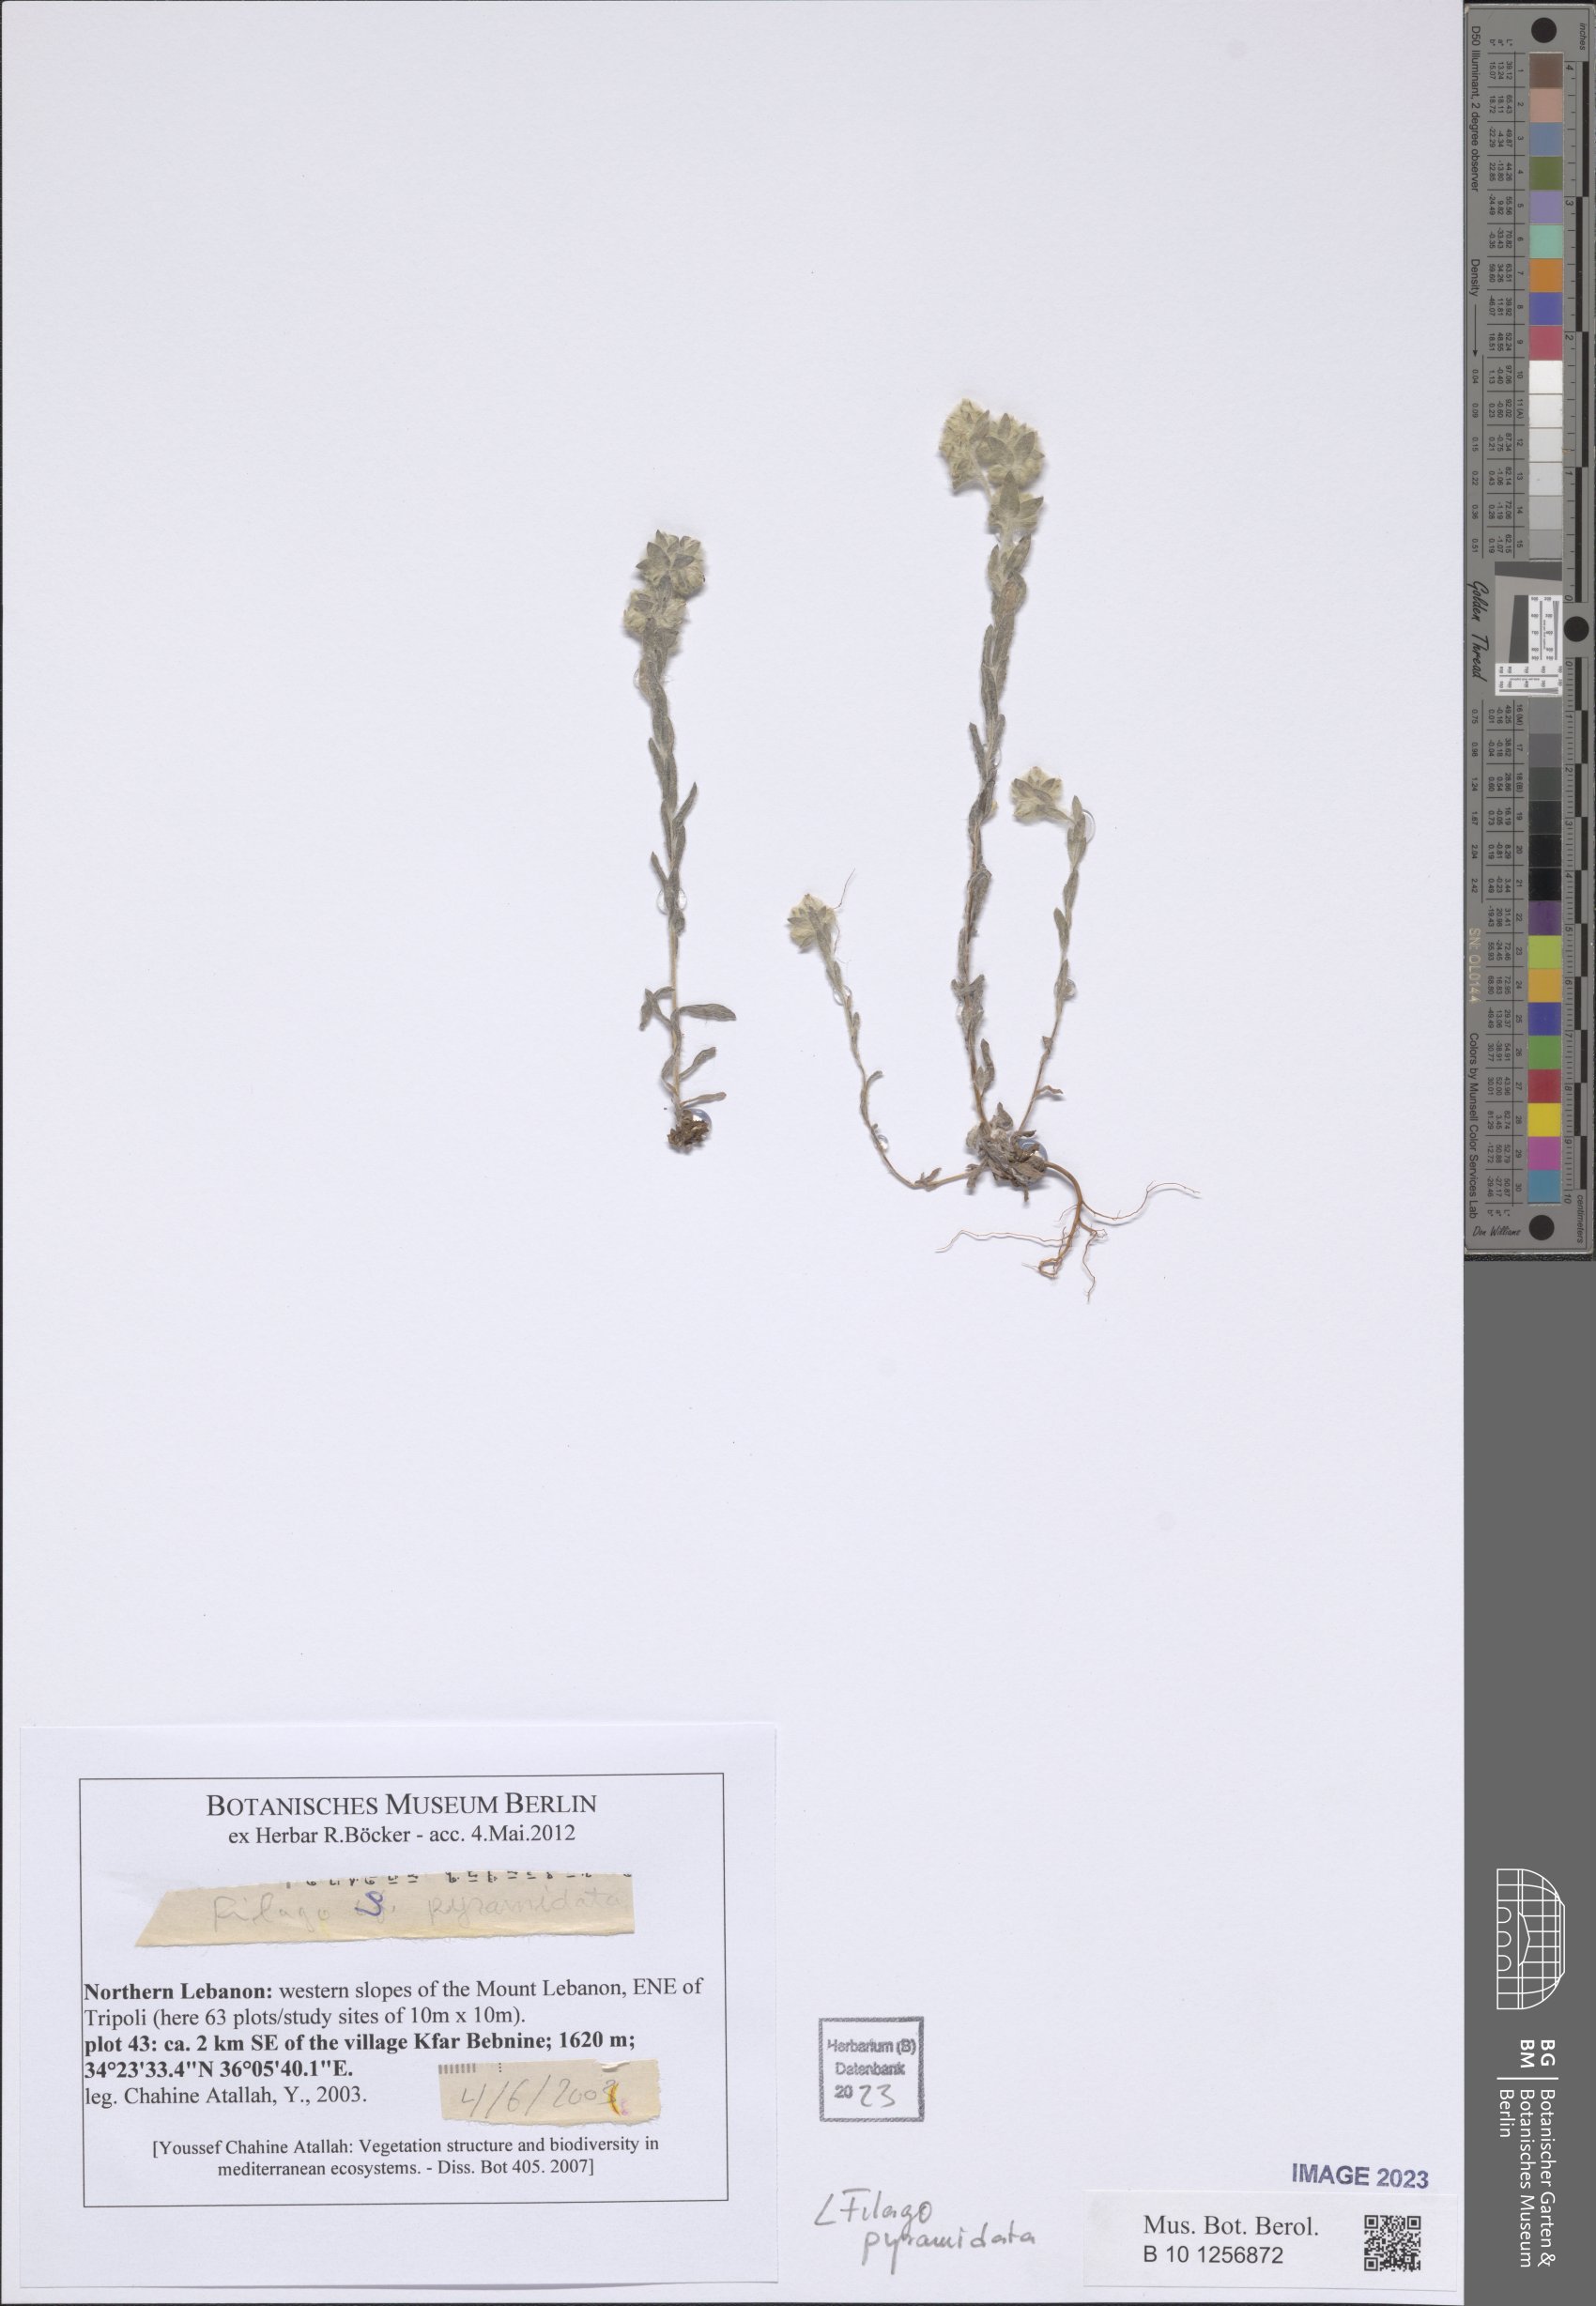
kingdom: Plantae
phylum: Tracheophyta
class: Magnoliopsida
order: Asterales
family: Asteraceae
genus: Filago
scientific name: Filago pyramidata
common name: Broad-leaved cudweed
